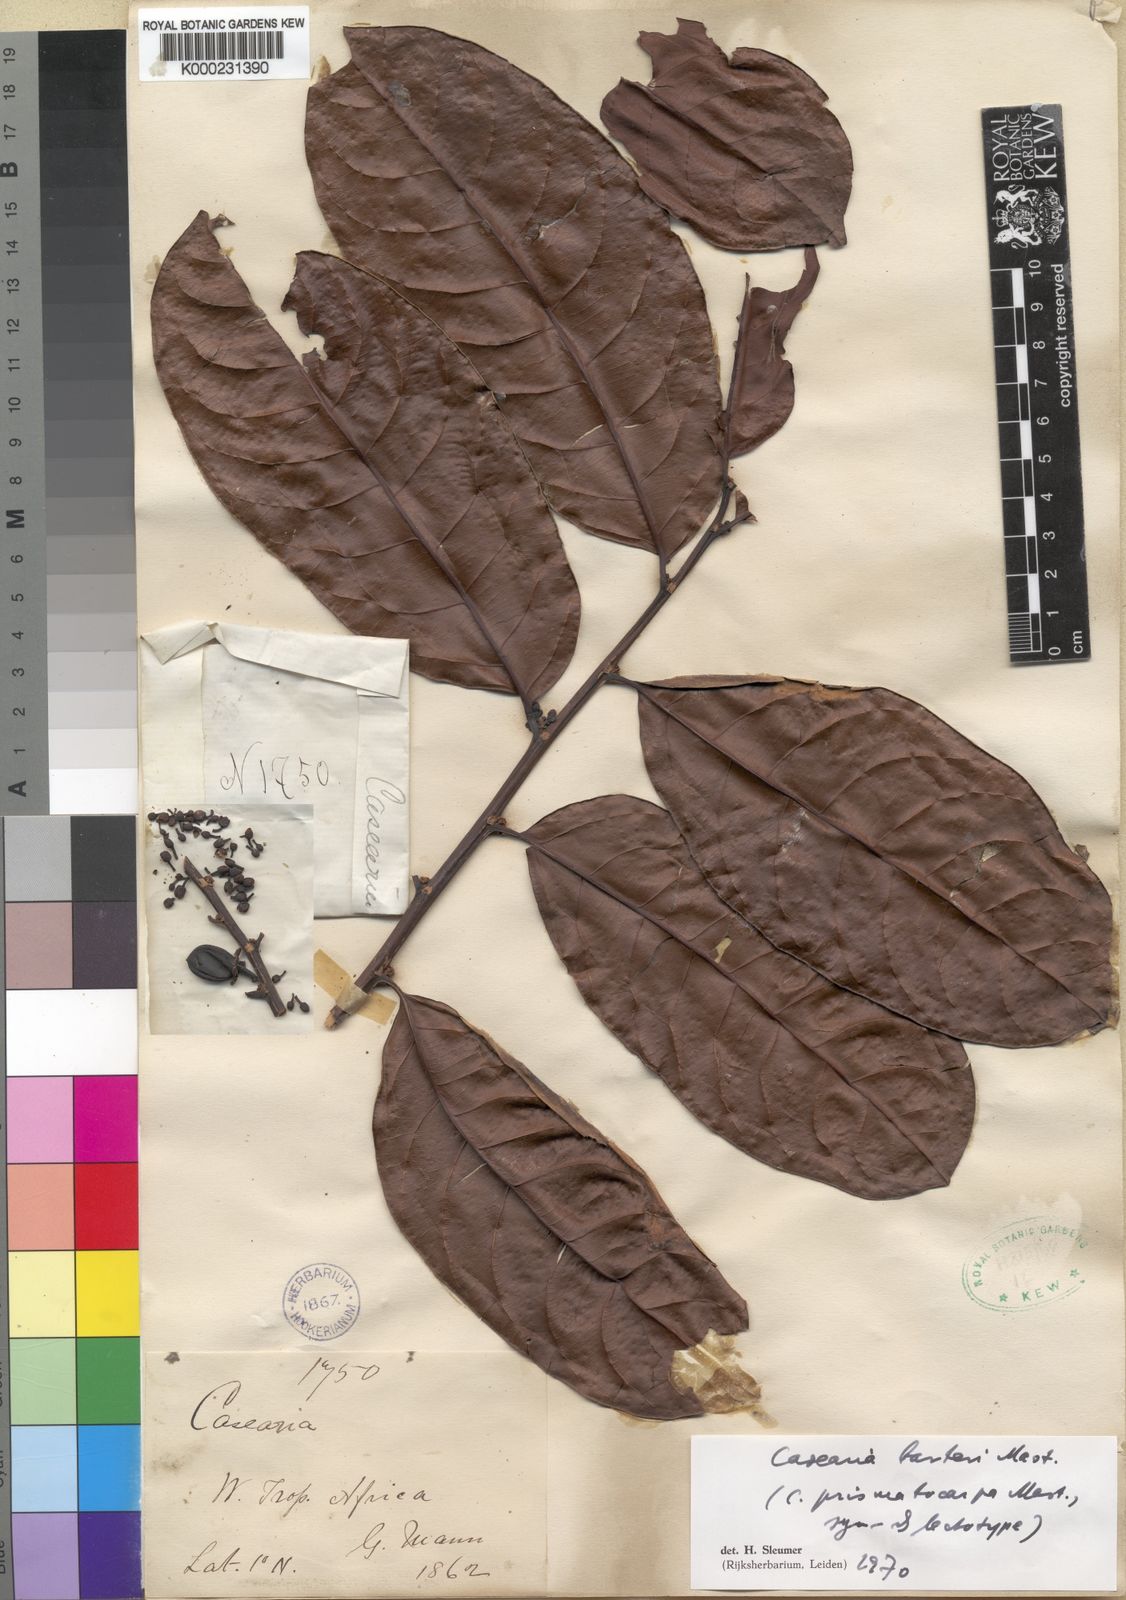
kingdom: Plantae
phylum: Tracheophyta
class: Magnoliopsida
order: Malpighiales
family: Salicaceae
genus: Casearia
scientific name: Casearia barteri
